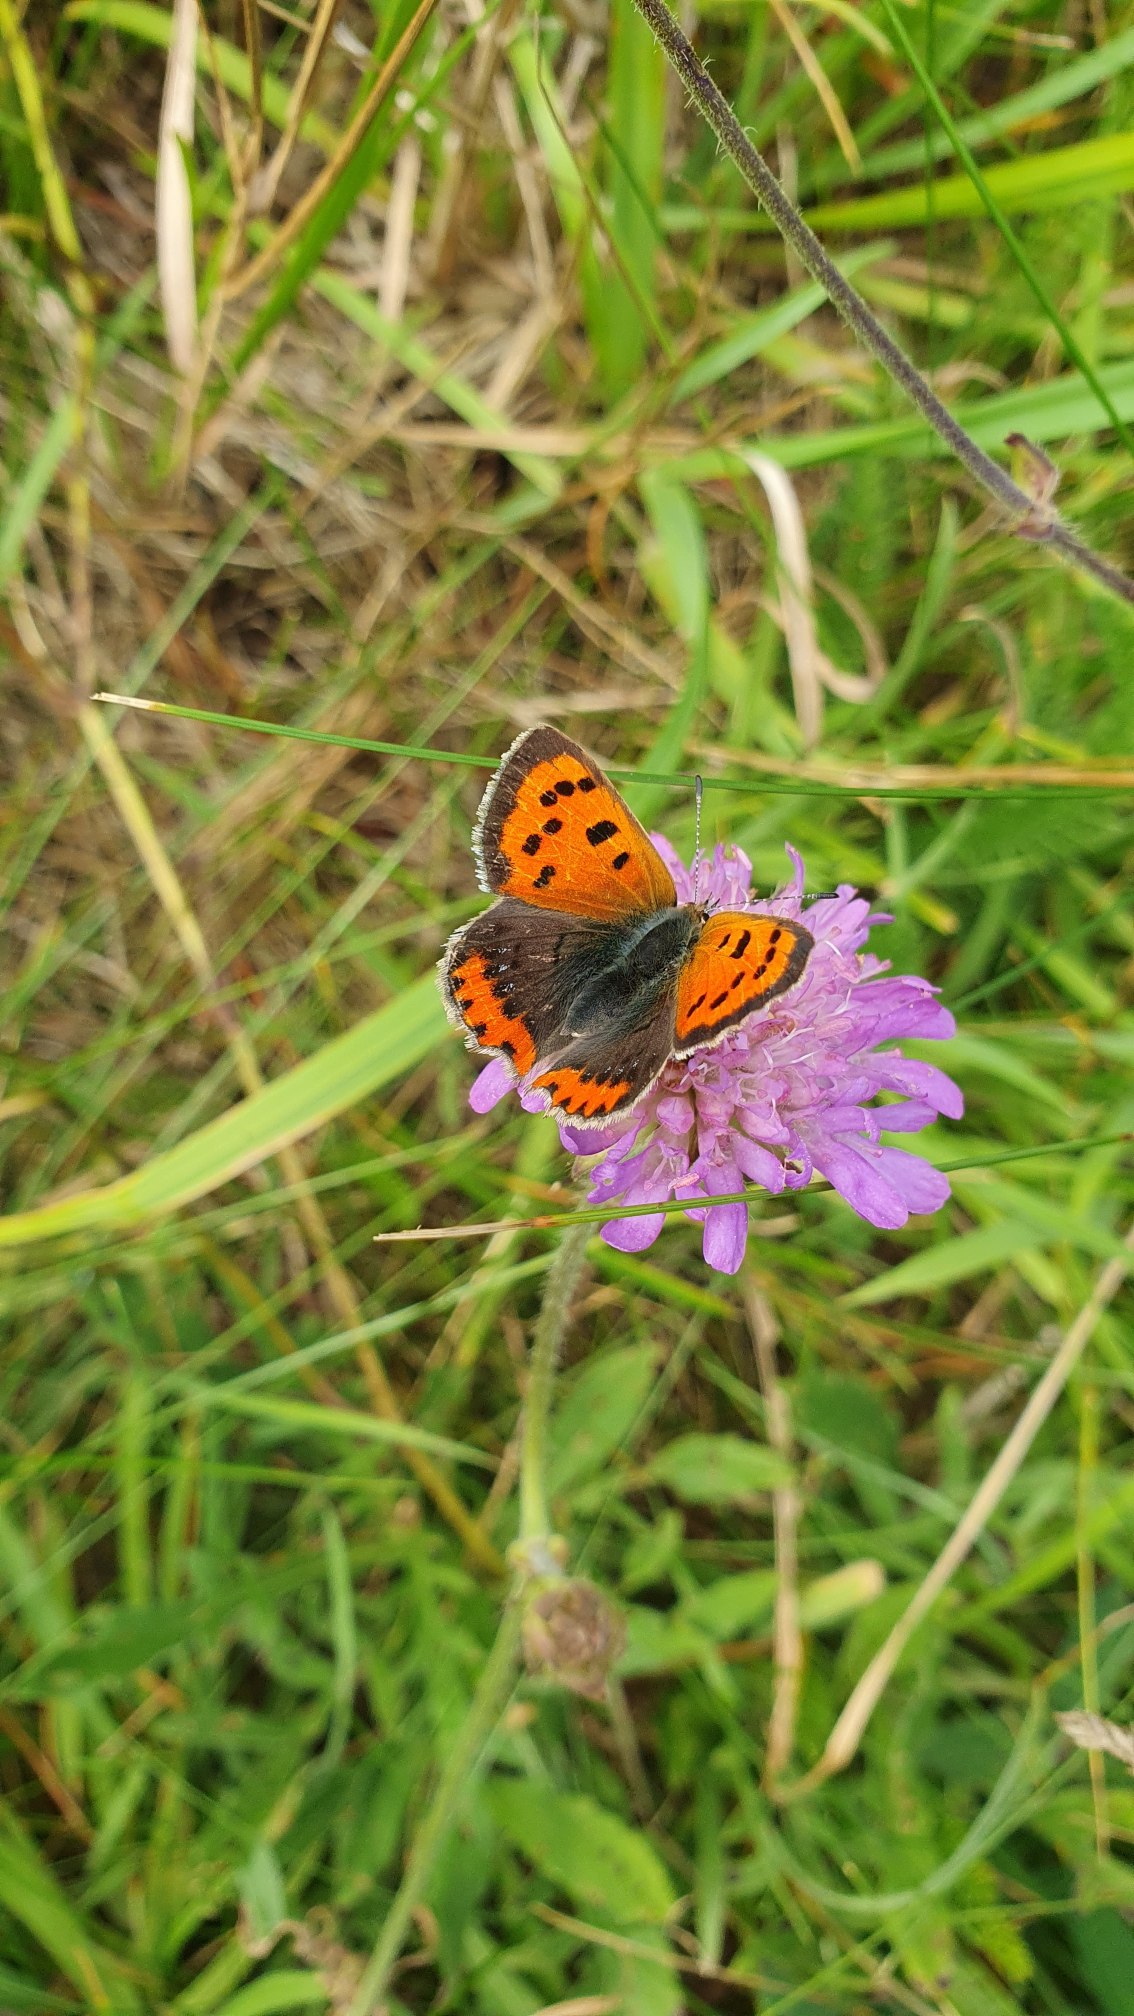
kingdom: Animalia
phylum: Arthropoda
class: Insecta
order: Lepidoptera
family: Lycaenidae
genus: Lycaena
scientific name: Lycaena phlaeas
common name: Lille ildfugl
